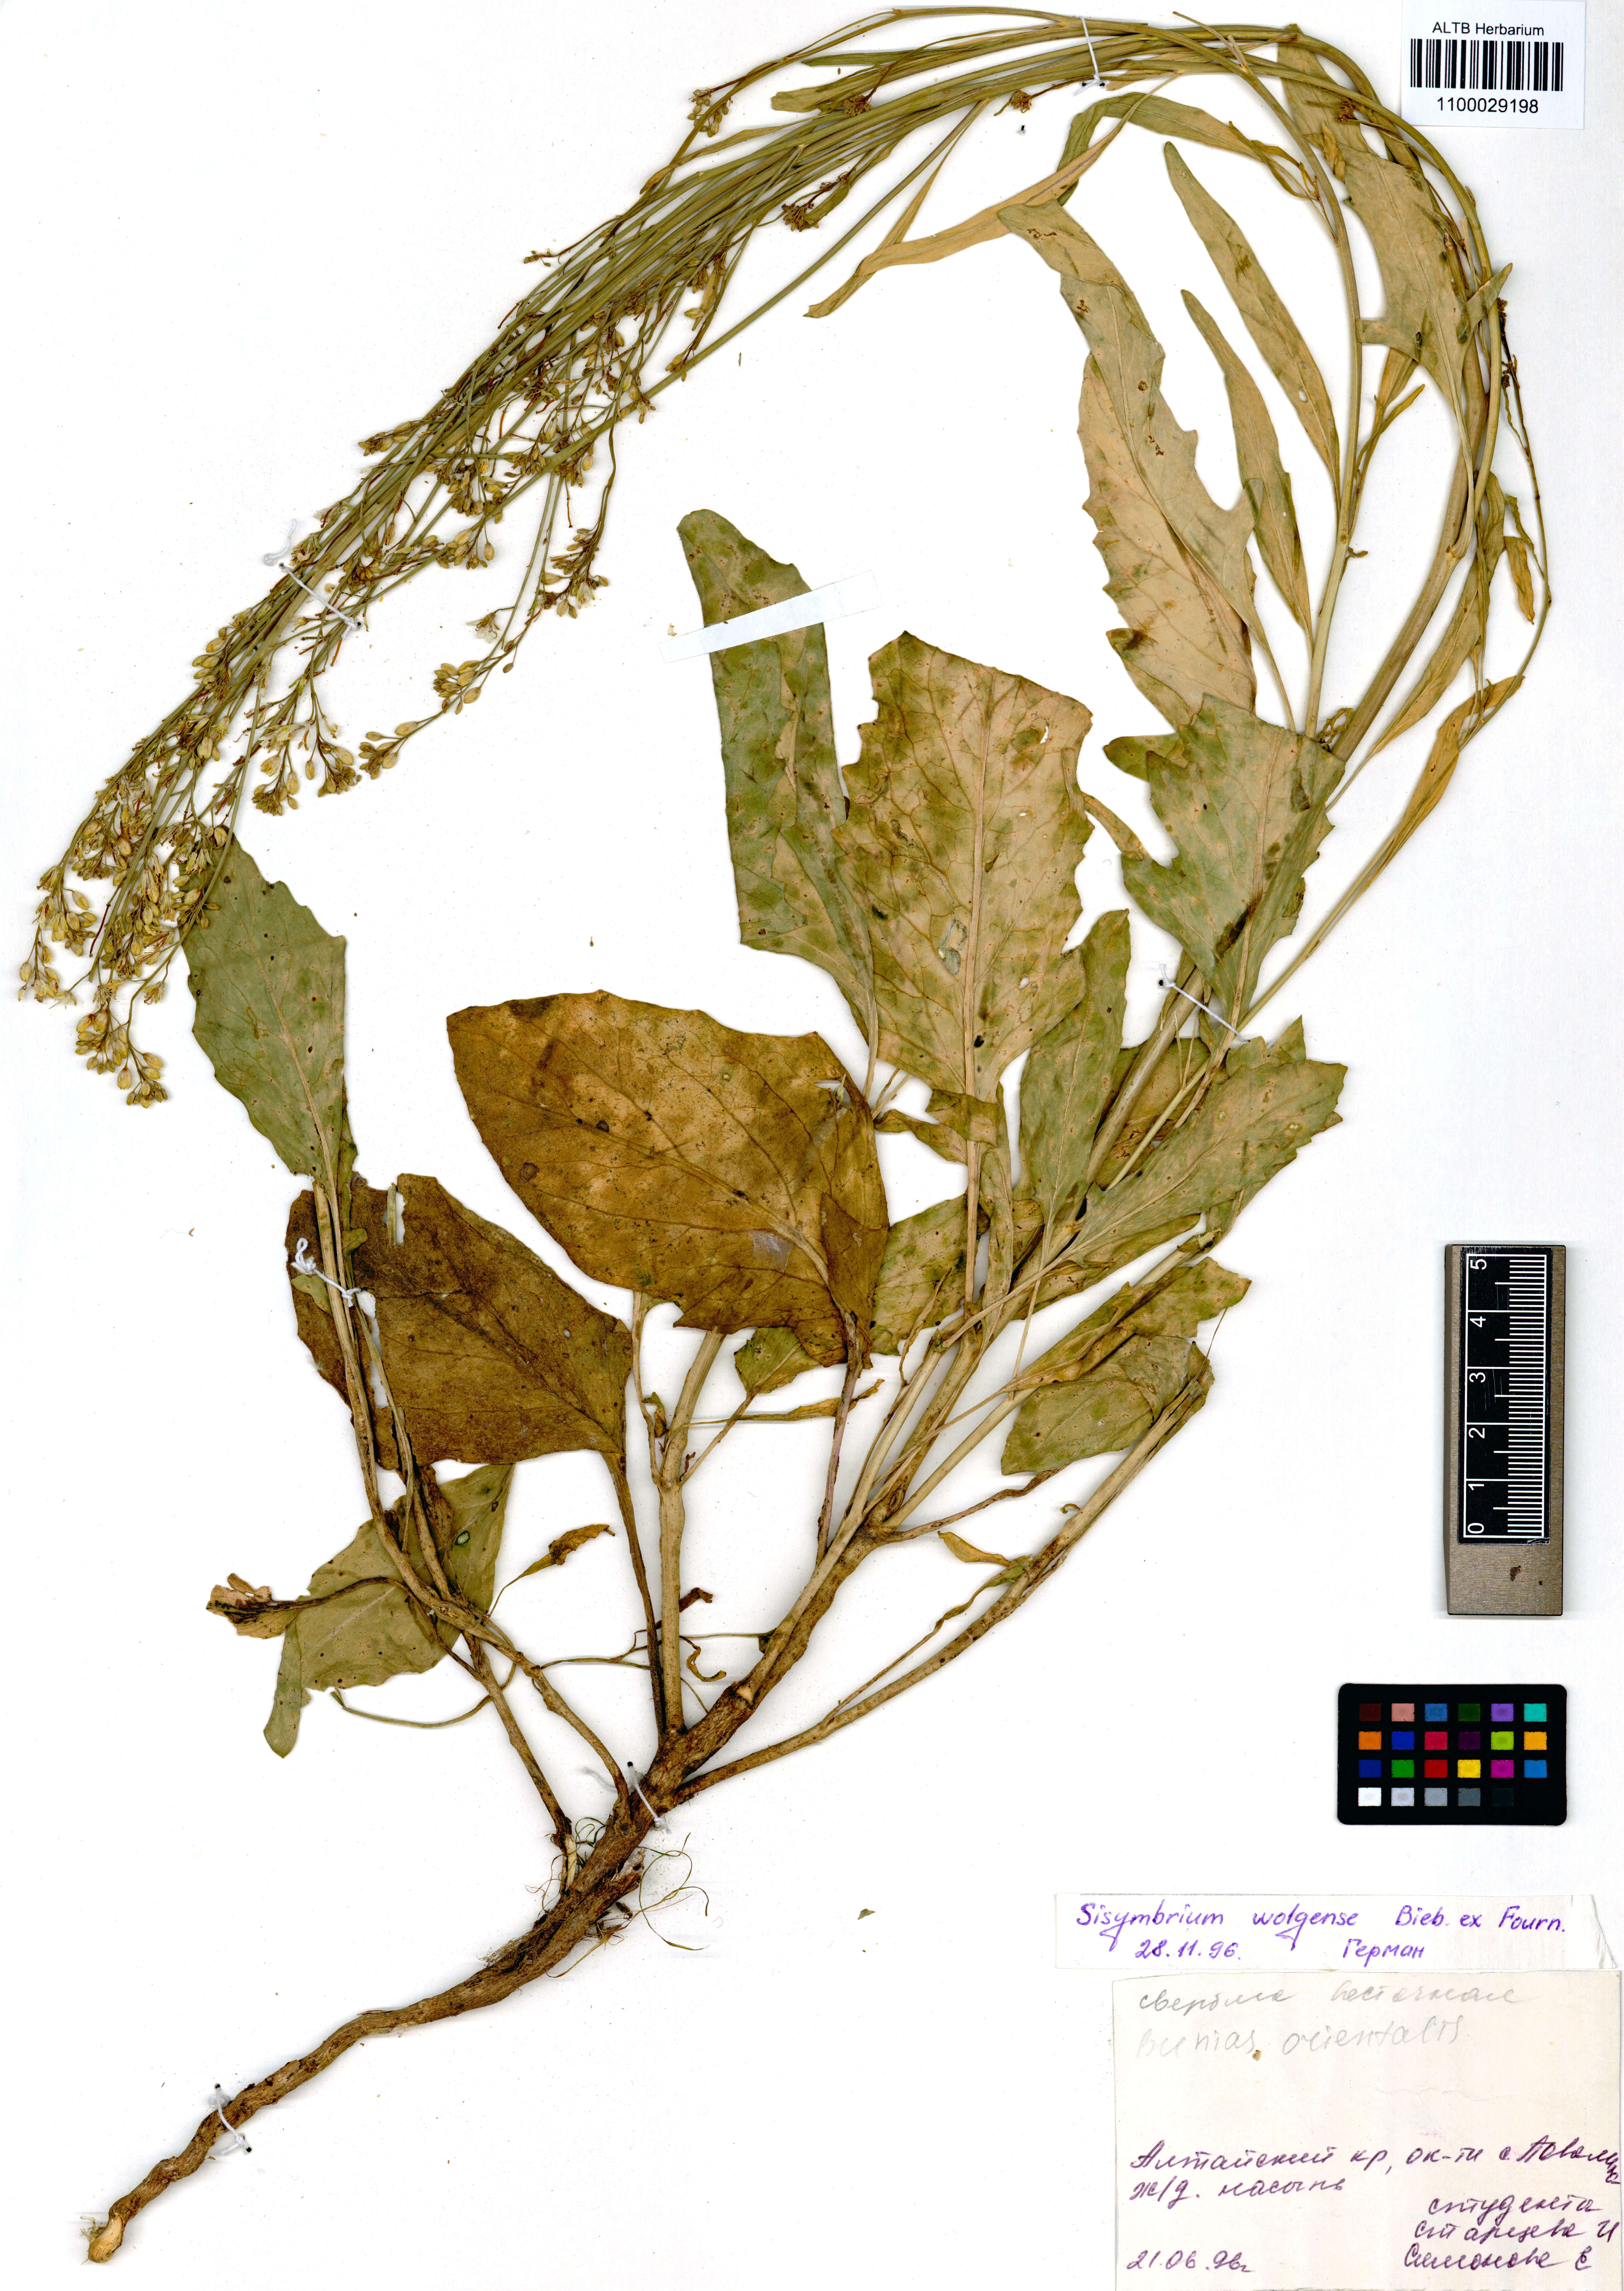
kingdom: Plantae
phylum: Tracheophyta
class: Magnoliopsida
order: Brassicales
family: Brassicaceae
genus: Sisymbrium
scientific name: Sisymbrium volgense
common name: Russian mustard
